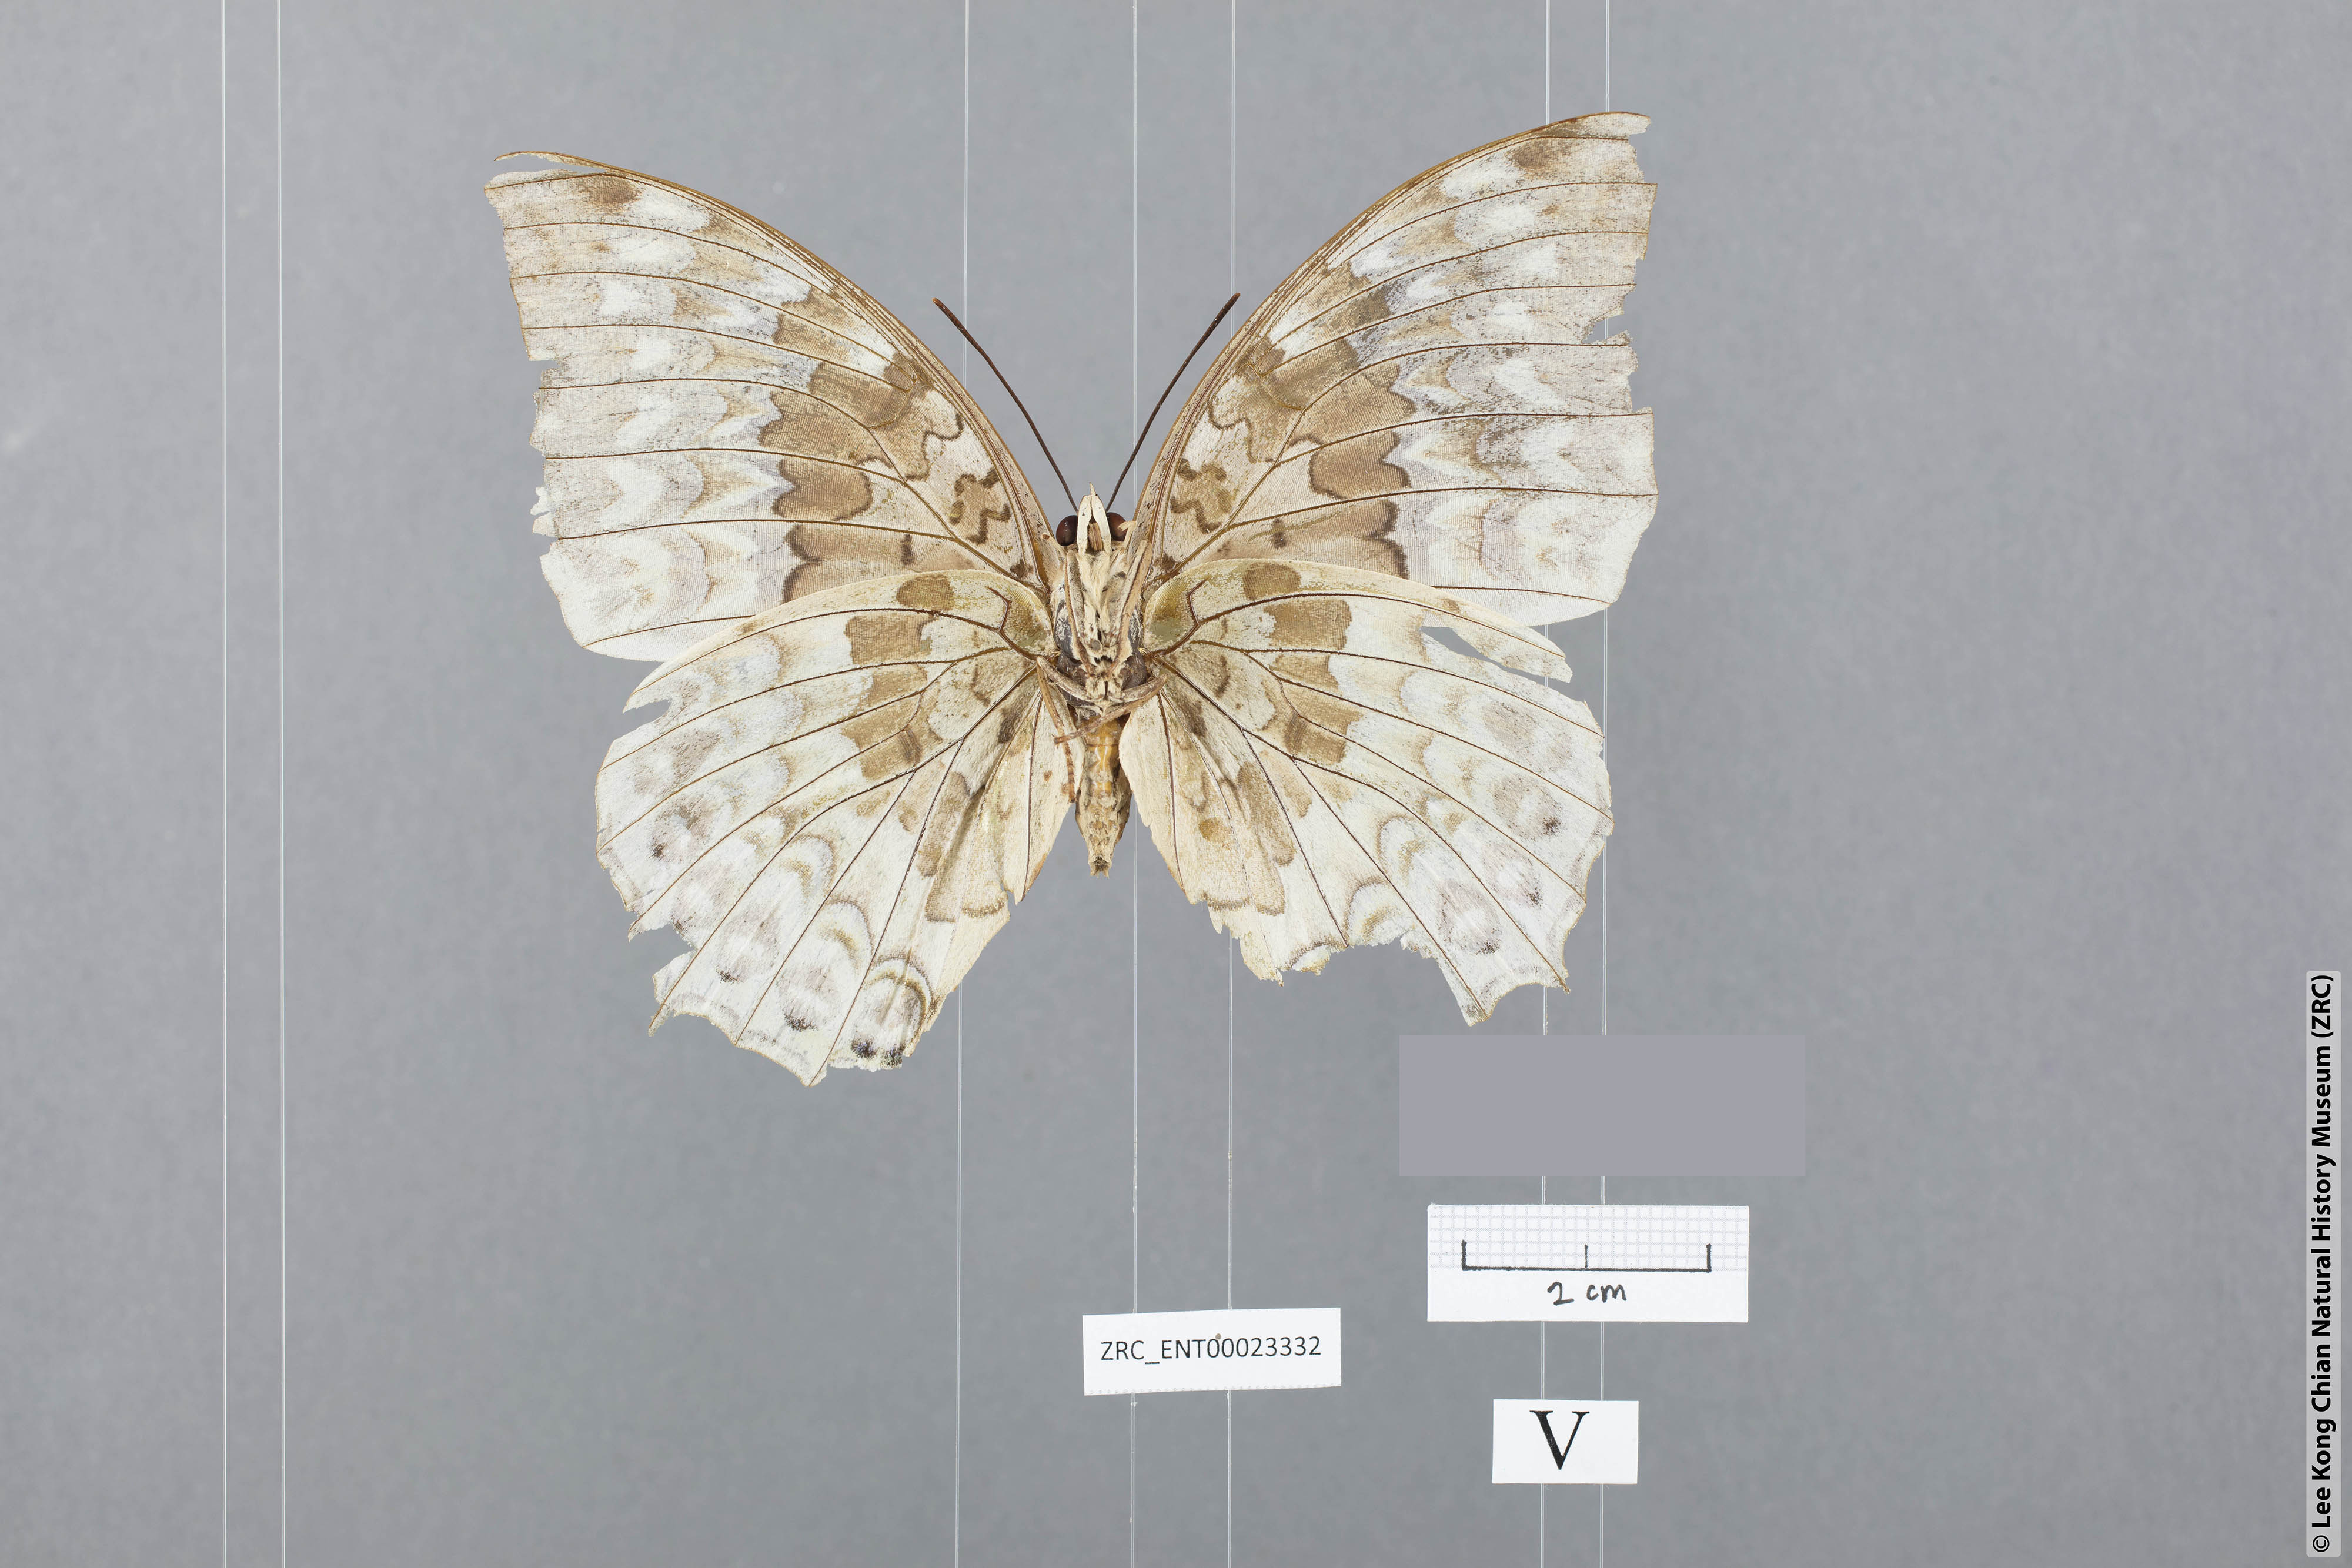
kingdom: Animalia
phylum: Arthropoda
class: Insecta
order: Lepidoptera
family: Nymphalidae
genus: Charaxes
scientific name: Charaxes durnfordi
